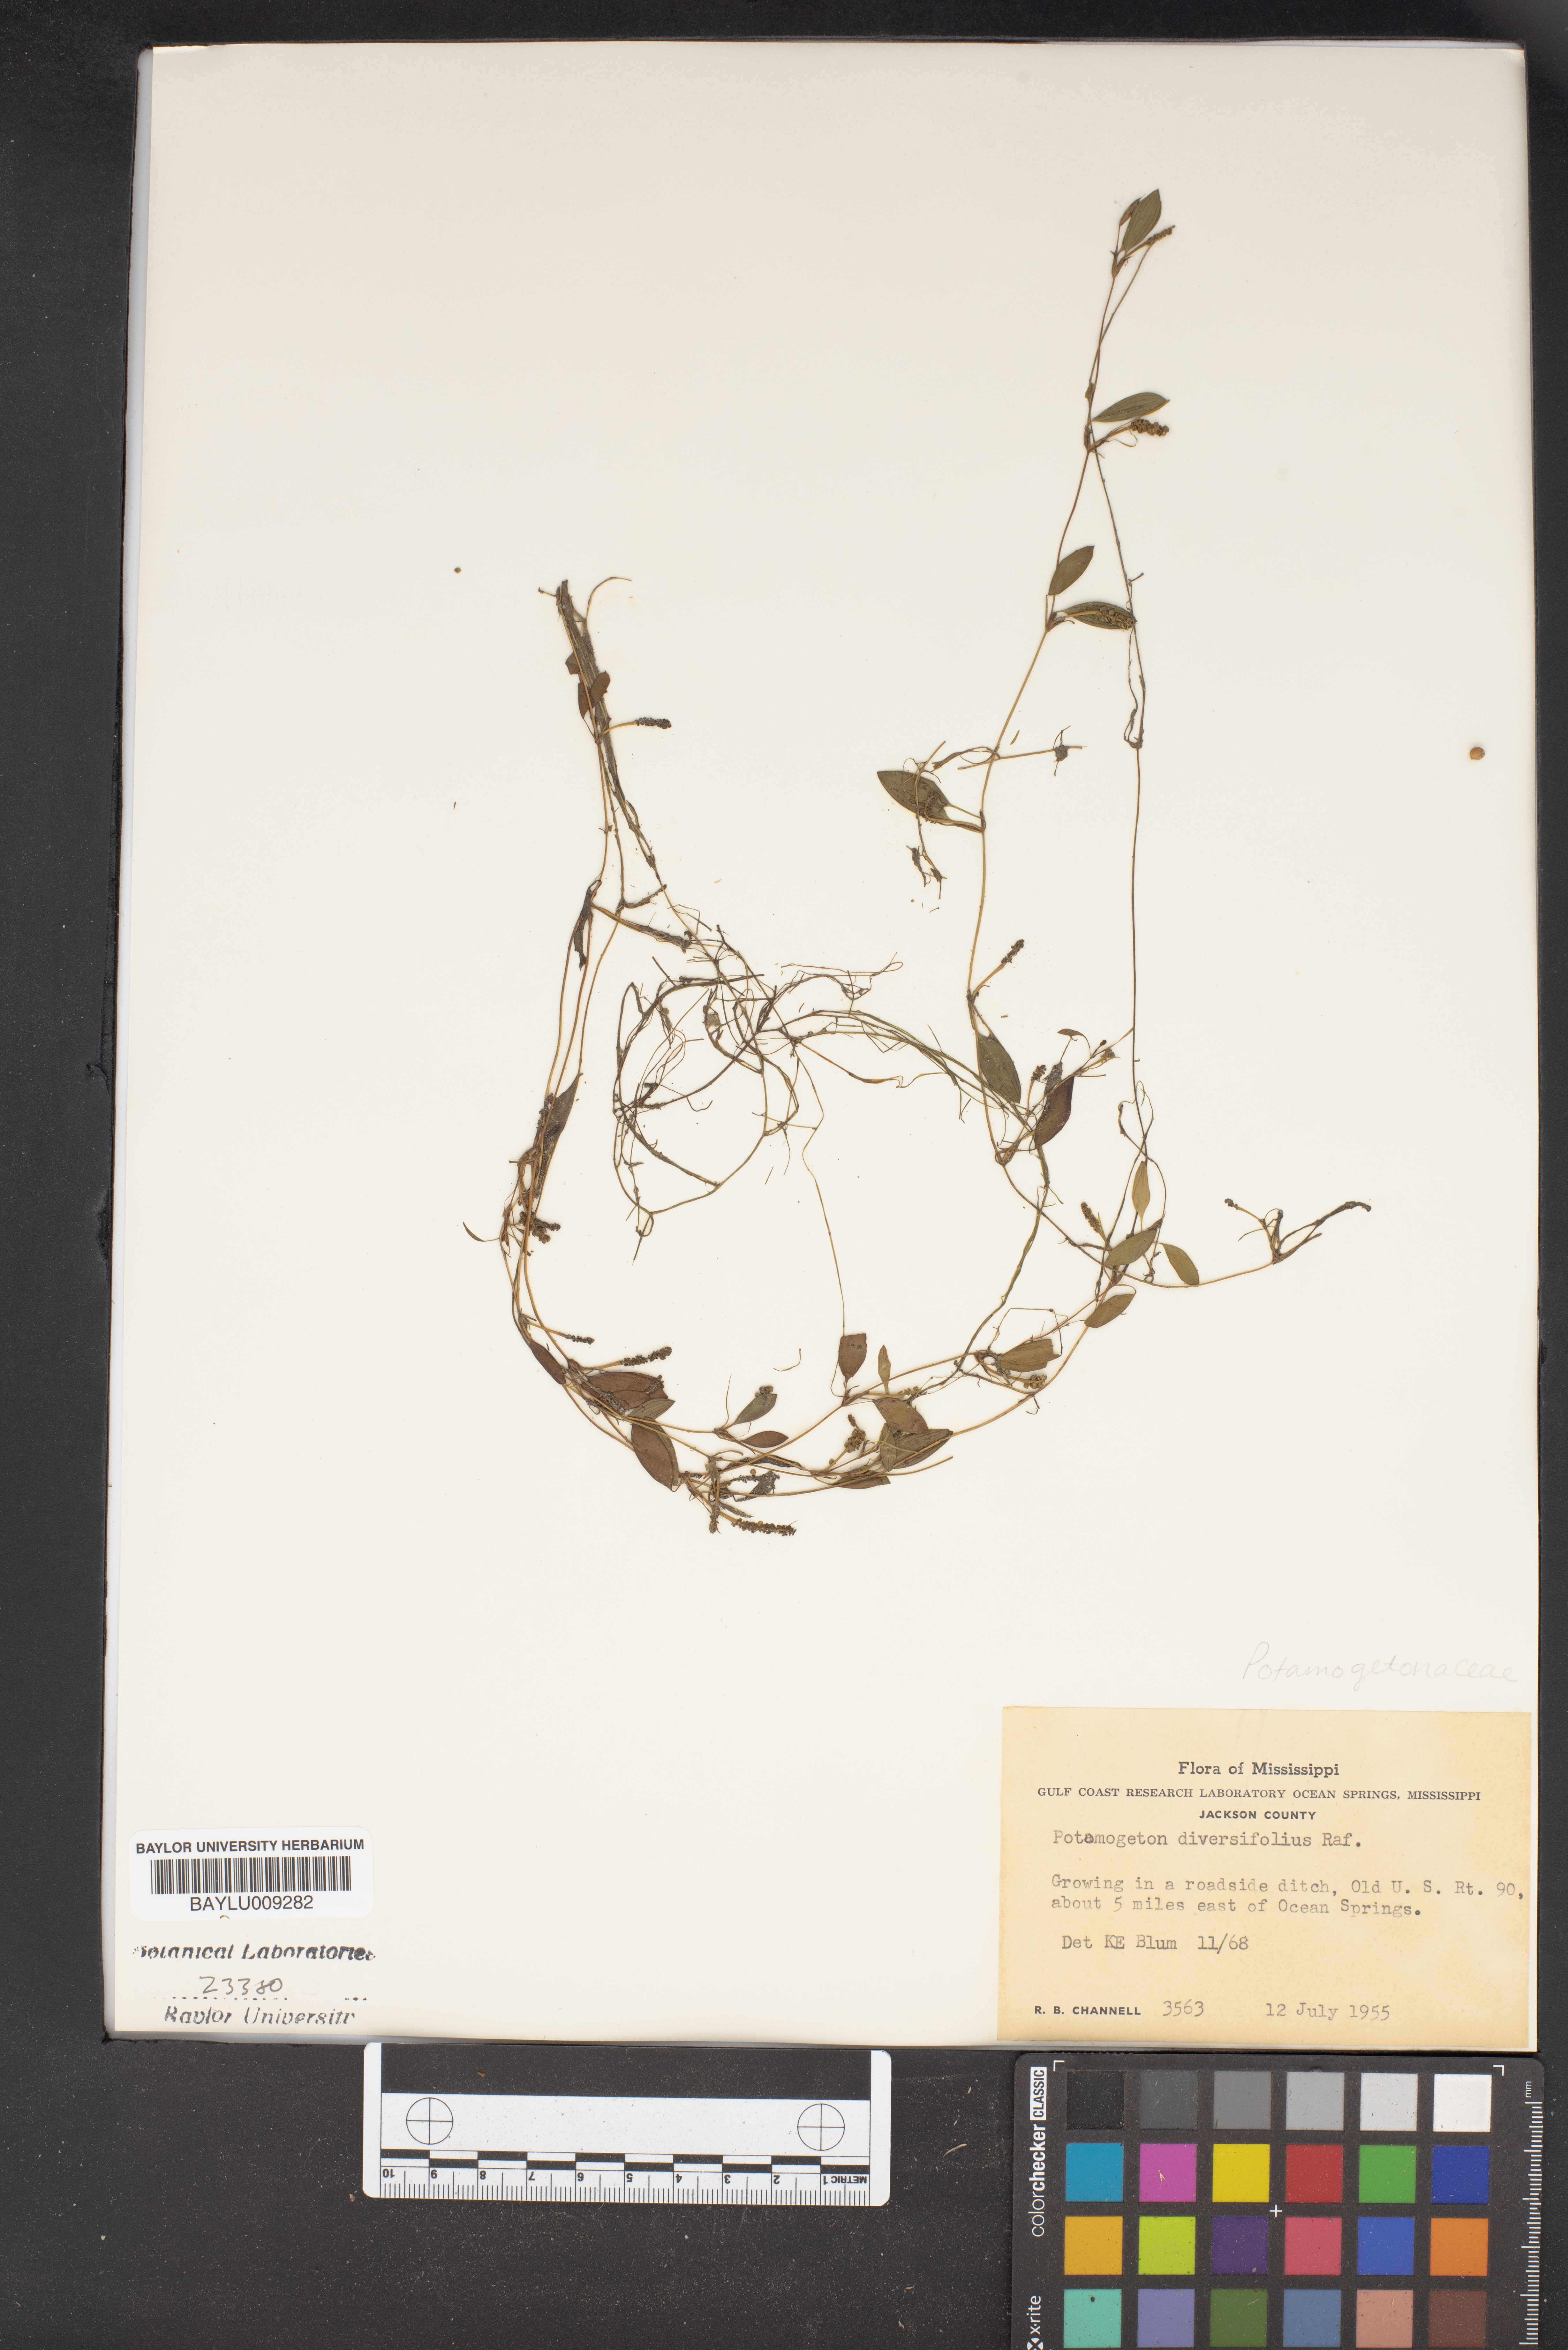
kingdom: Plantae
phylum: Tracheophyta
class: Liliopsida
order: Alismatales
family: Potamogetonaceae
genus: Potamogeton
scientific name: Potamogeton diversifolius
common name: Water-thread pondweed
